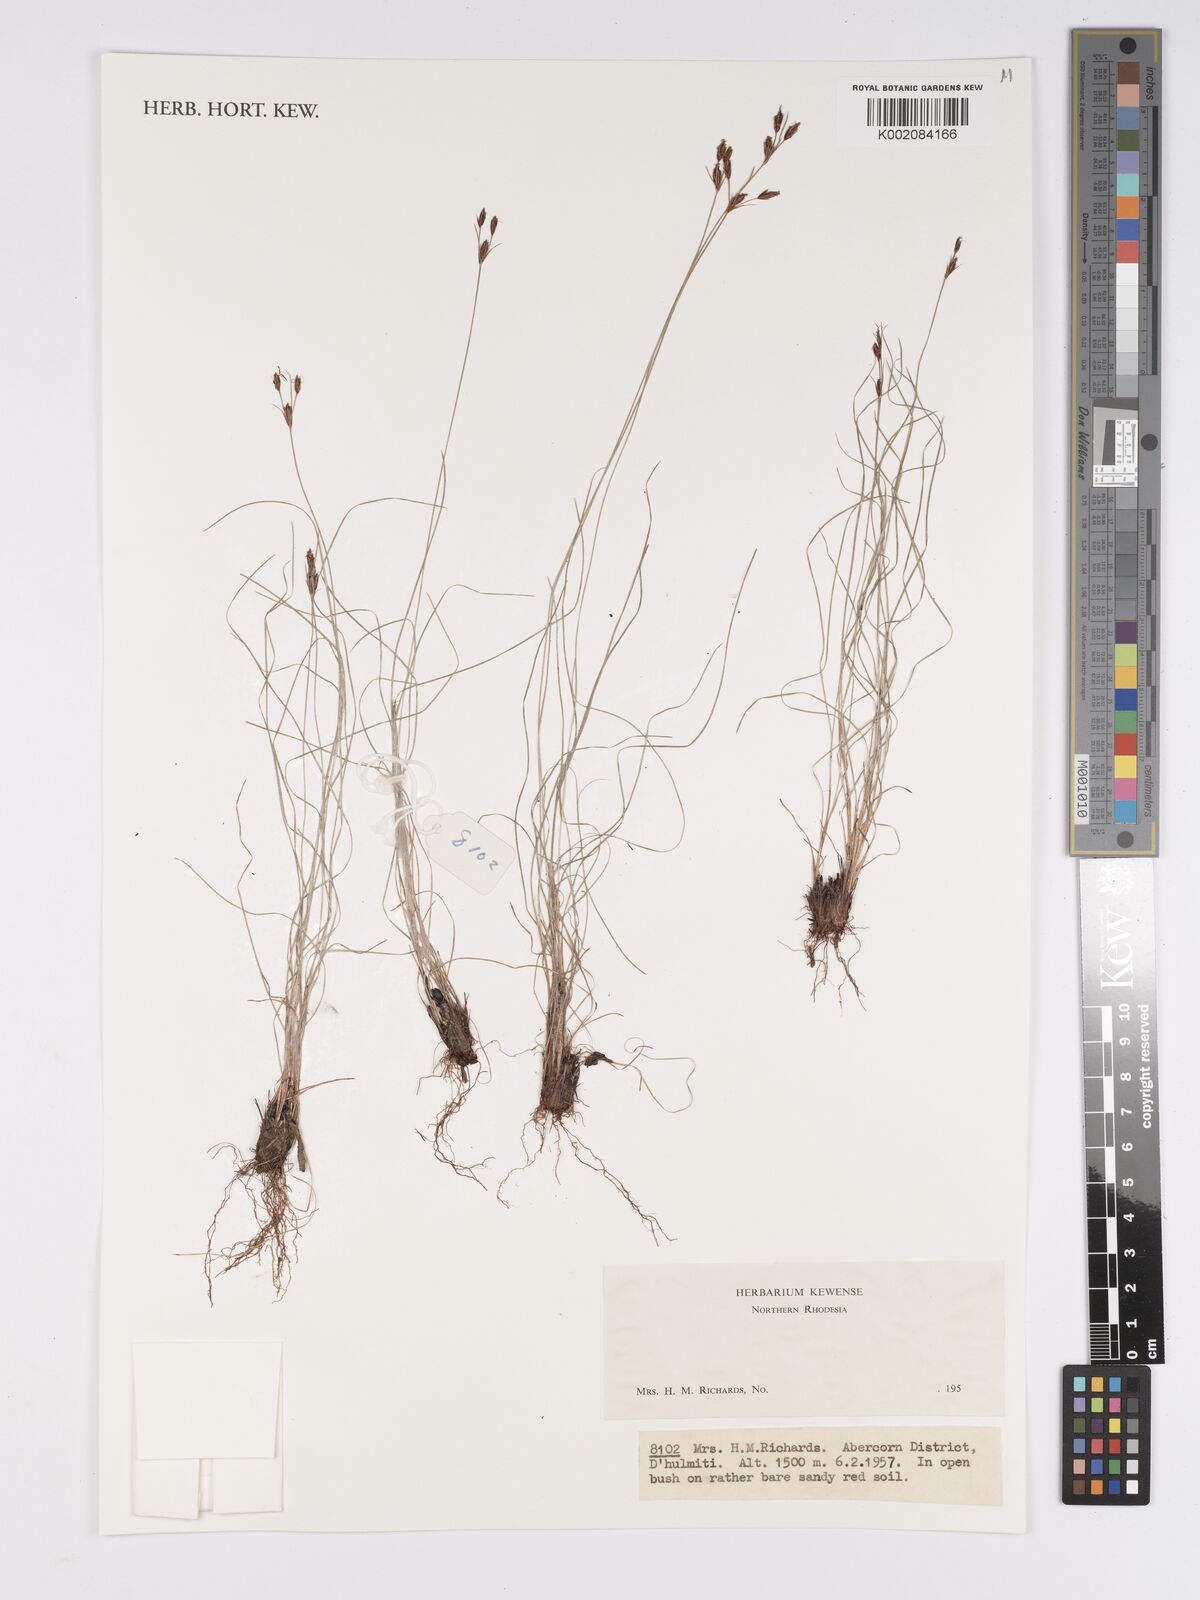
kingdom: Plantae
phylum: Tracheophyta
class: Liliopsida
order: Poales
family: Cyperaceae
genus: Bulbostylis
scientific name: Bulbostylis
